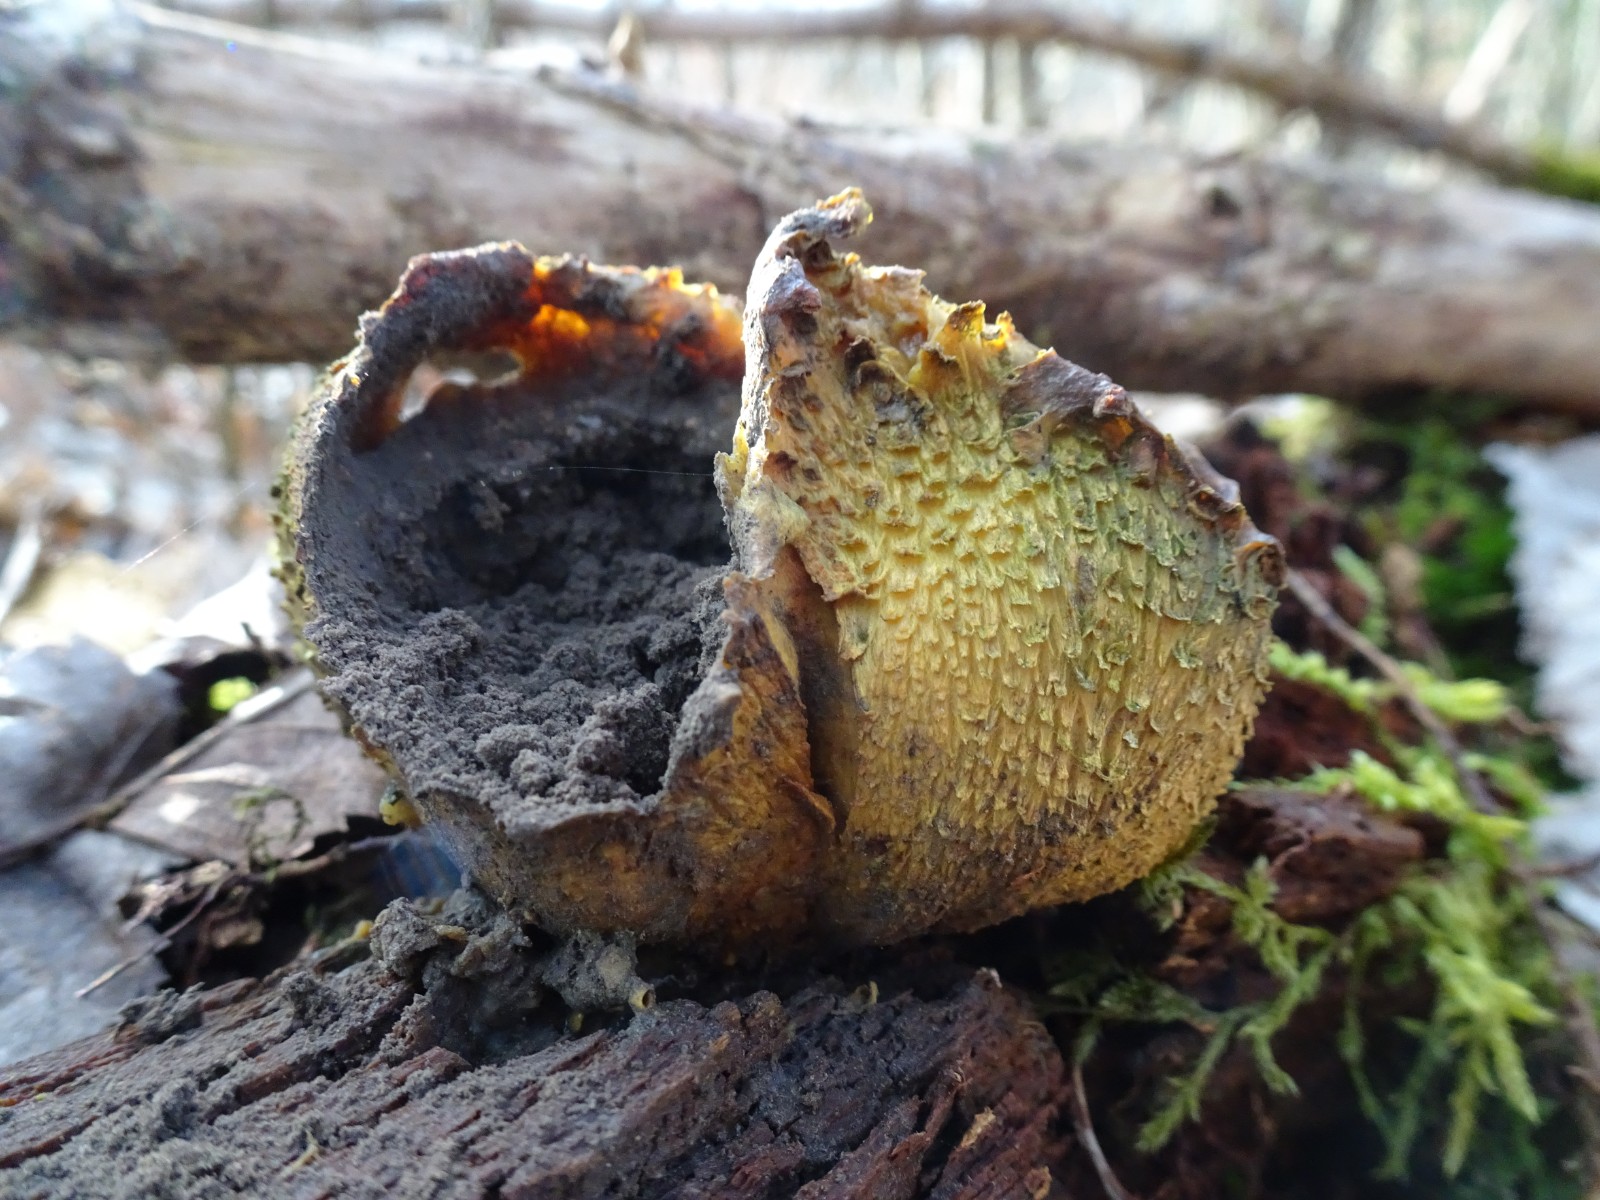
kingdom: Fungi
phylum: Basidiomycota
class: Agaricomycetes
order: Boletales
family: Sclerodermataceae
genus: Scleroderma
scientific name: Scleroderma citrinum
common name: almindelig bruskbold
